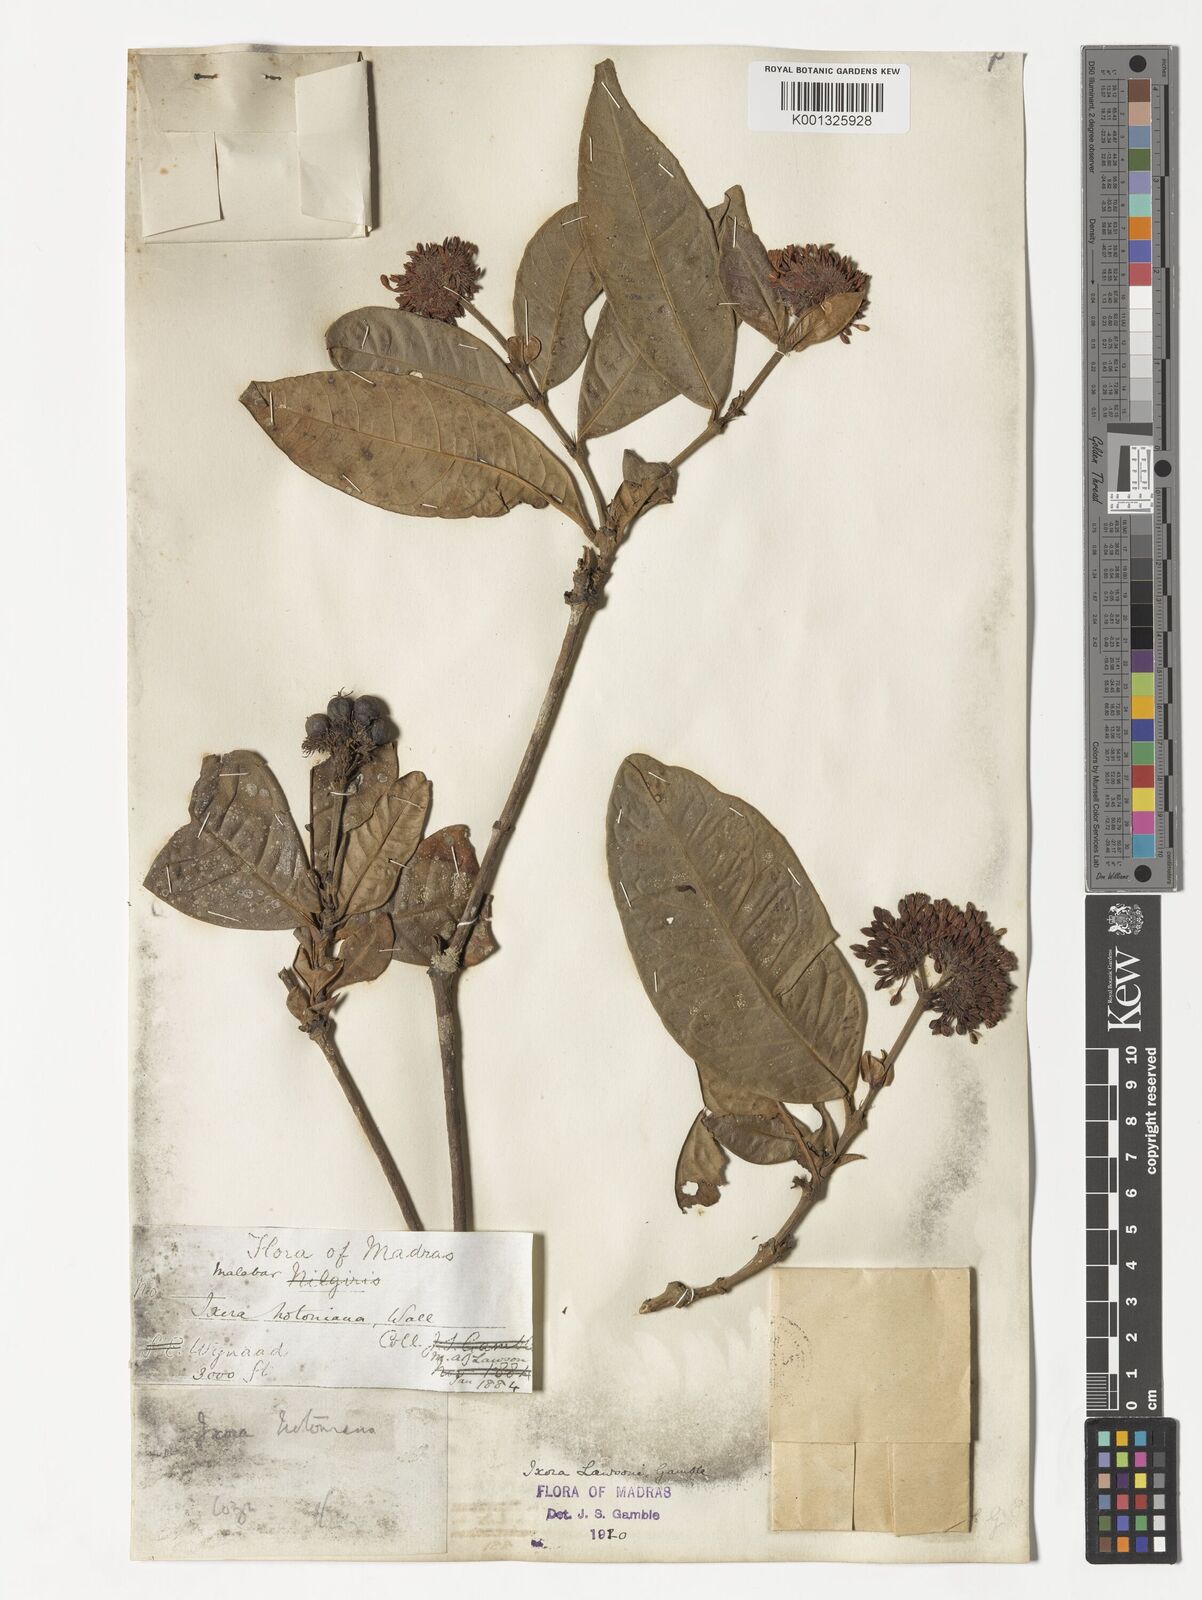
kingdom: Plantae
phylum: Tracheophyta
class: Magnoliopsida
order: Gentianales
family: Rubiaceae
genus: Ixora
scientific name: Ixora lawsonii
